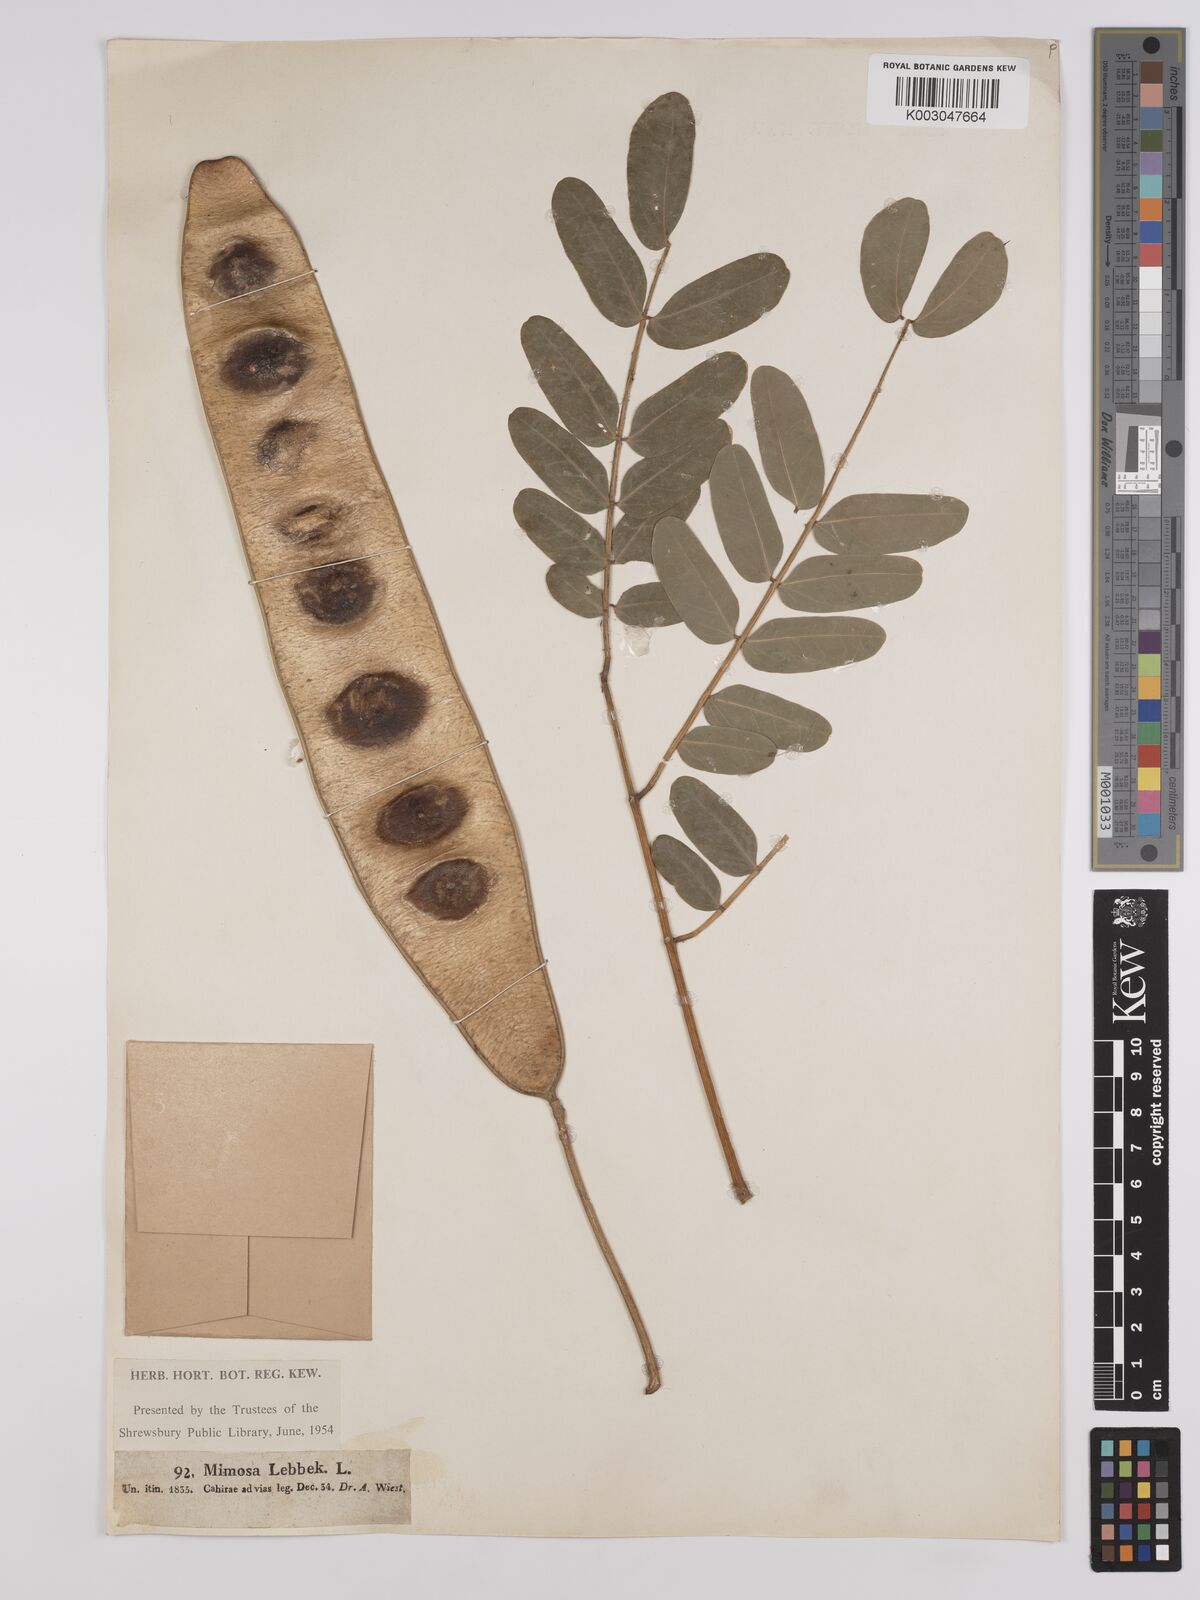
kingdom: Plantae
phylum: Tracheophyta
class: Magnoliopsida
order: Fabales
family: Fabaceae
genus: Albizia
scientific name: Albizia lebbeck
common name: Woman's tongue
